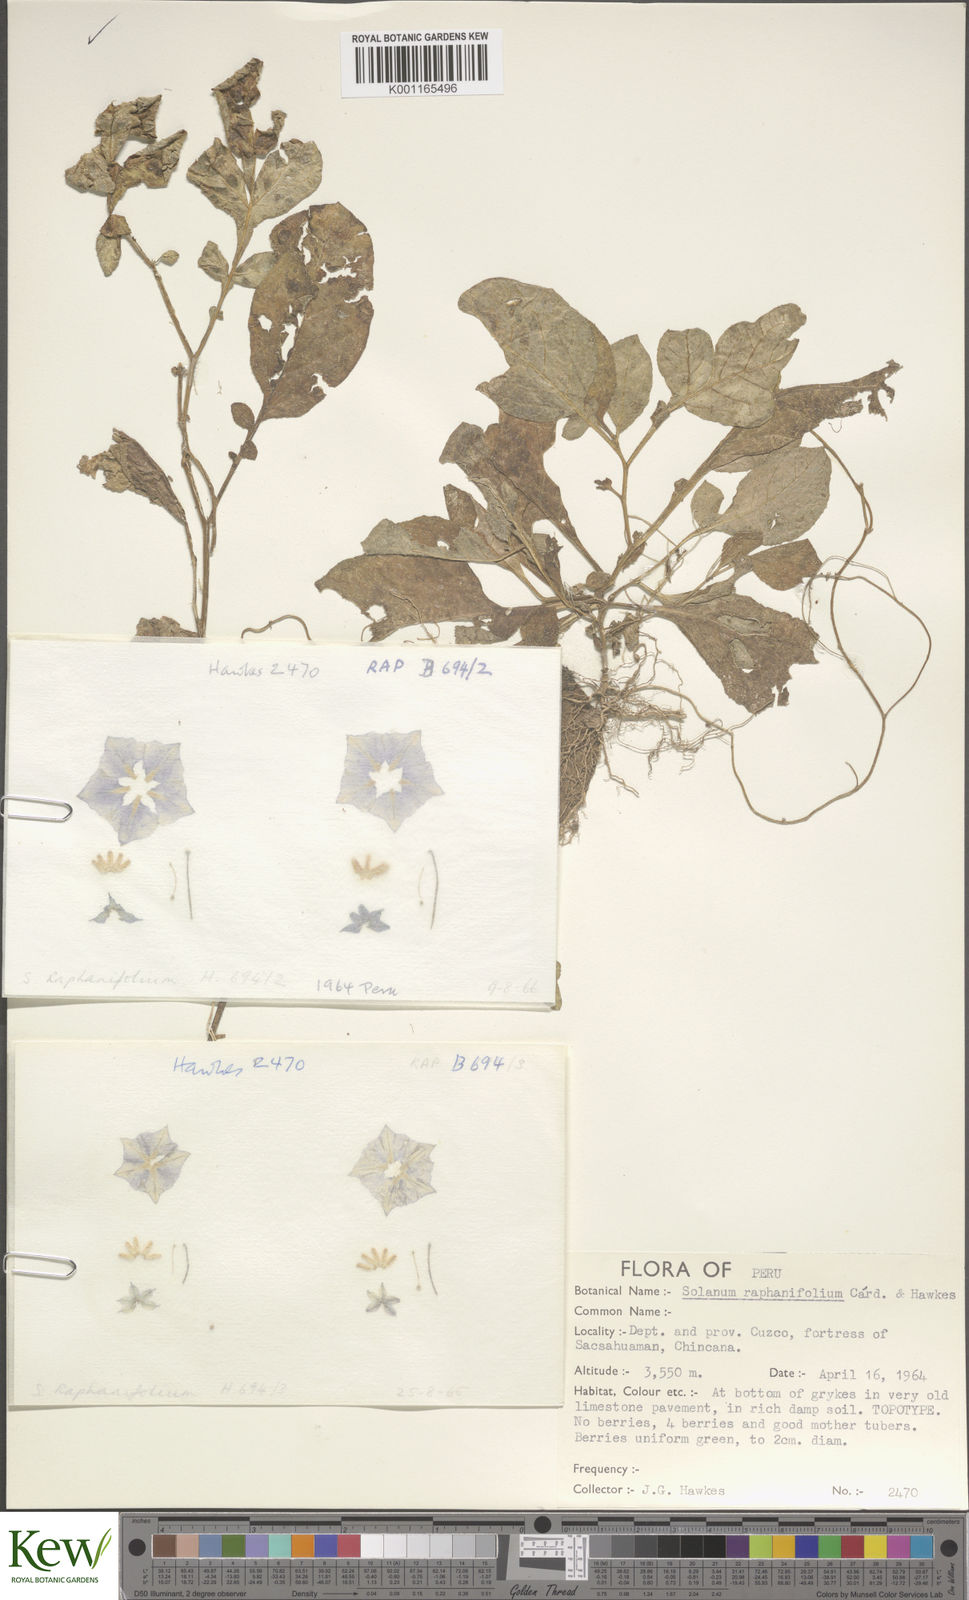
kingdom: Plantae
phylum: Tracheophyta
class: Magnoliopsida
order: Solanales
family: Solanaceae
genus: Solanum
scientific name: Solanum raphanifolium
